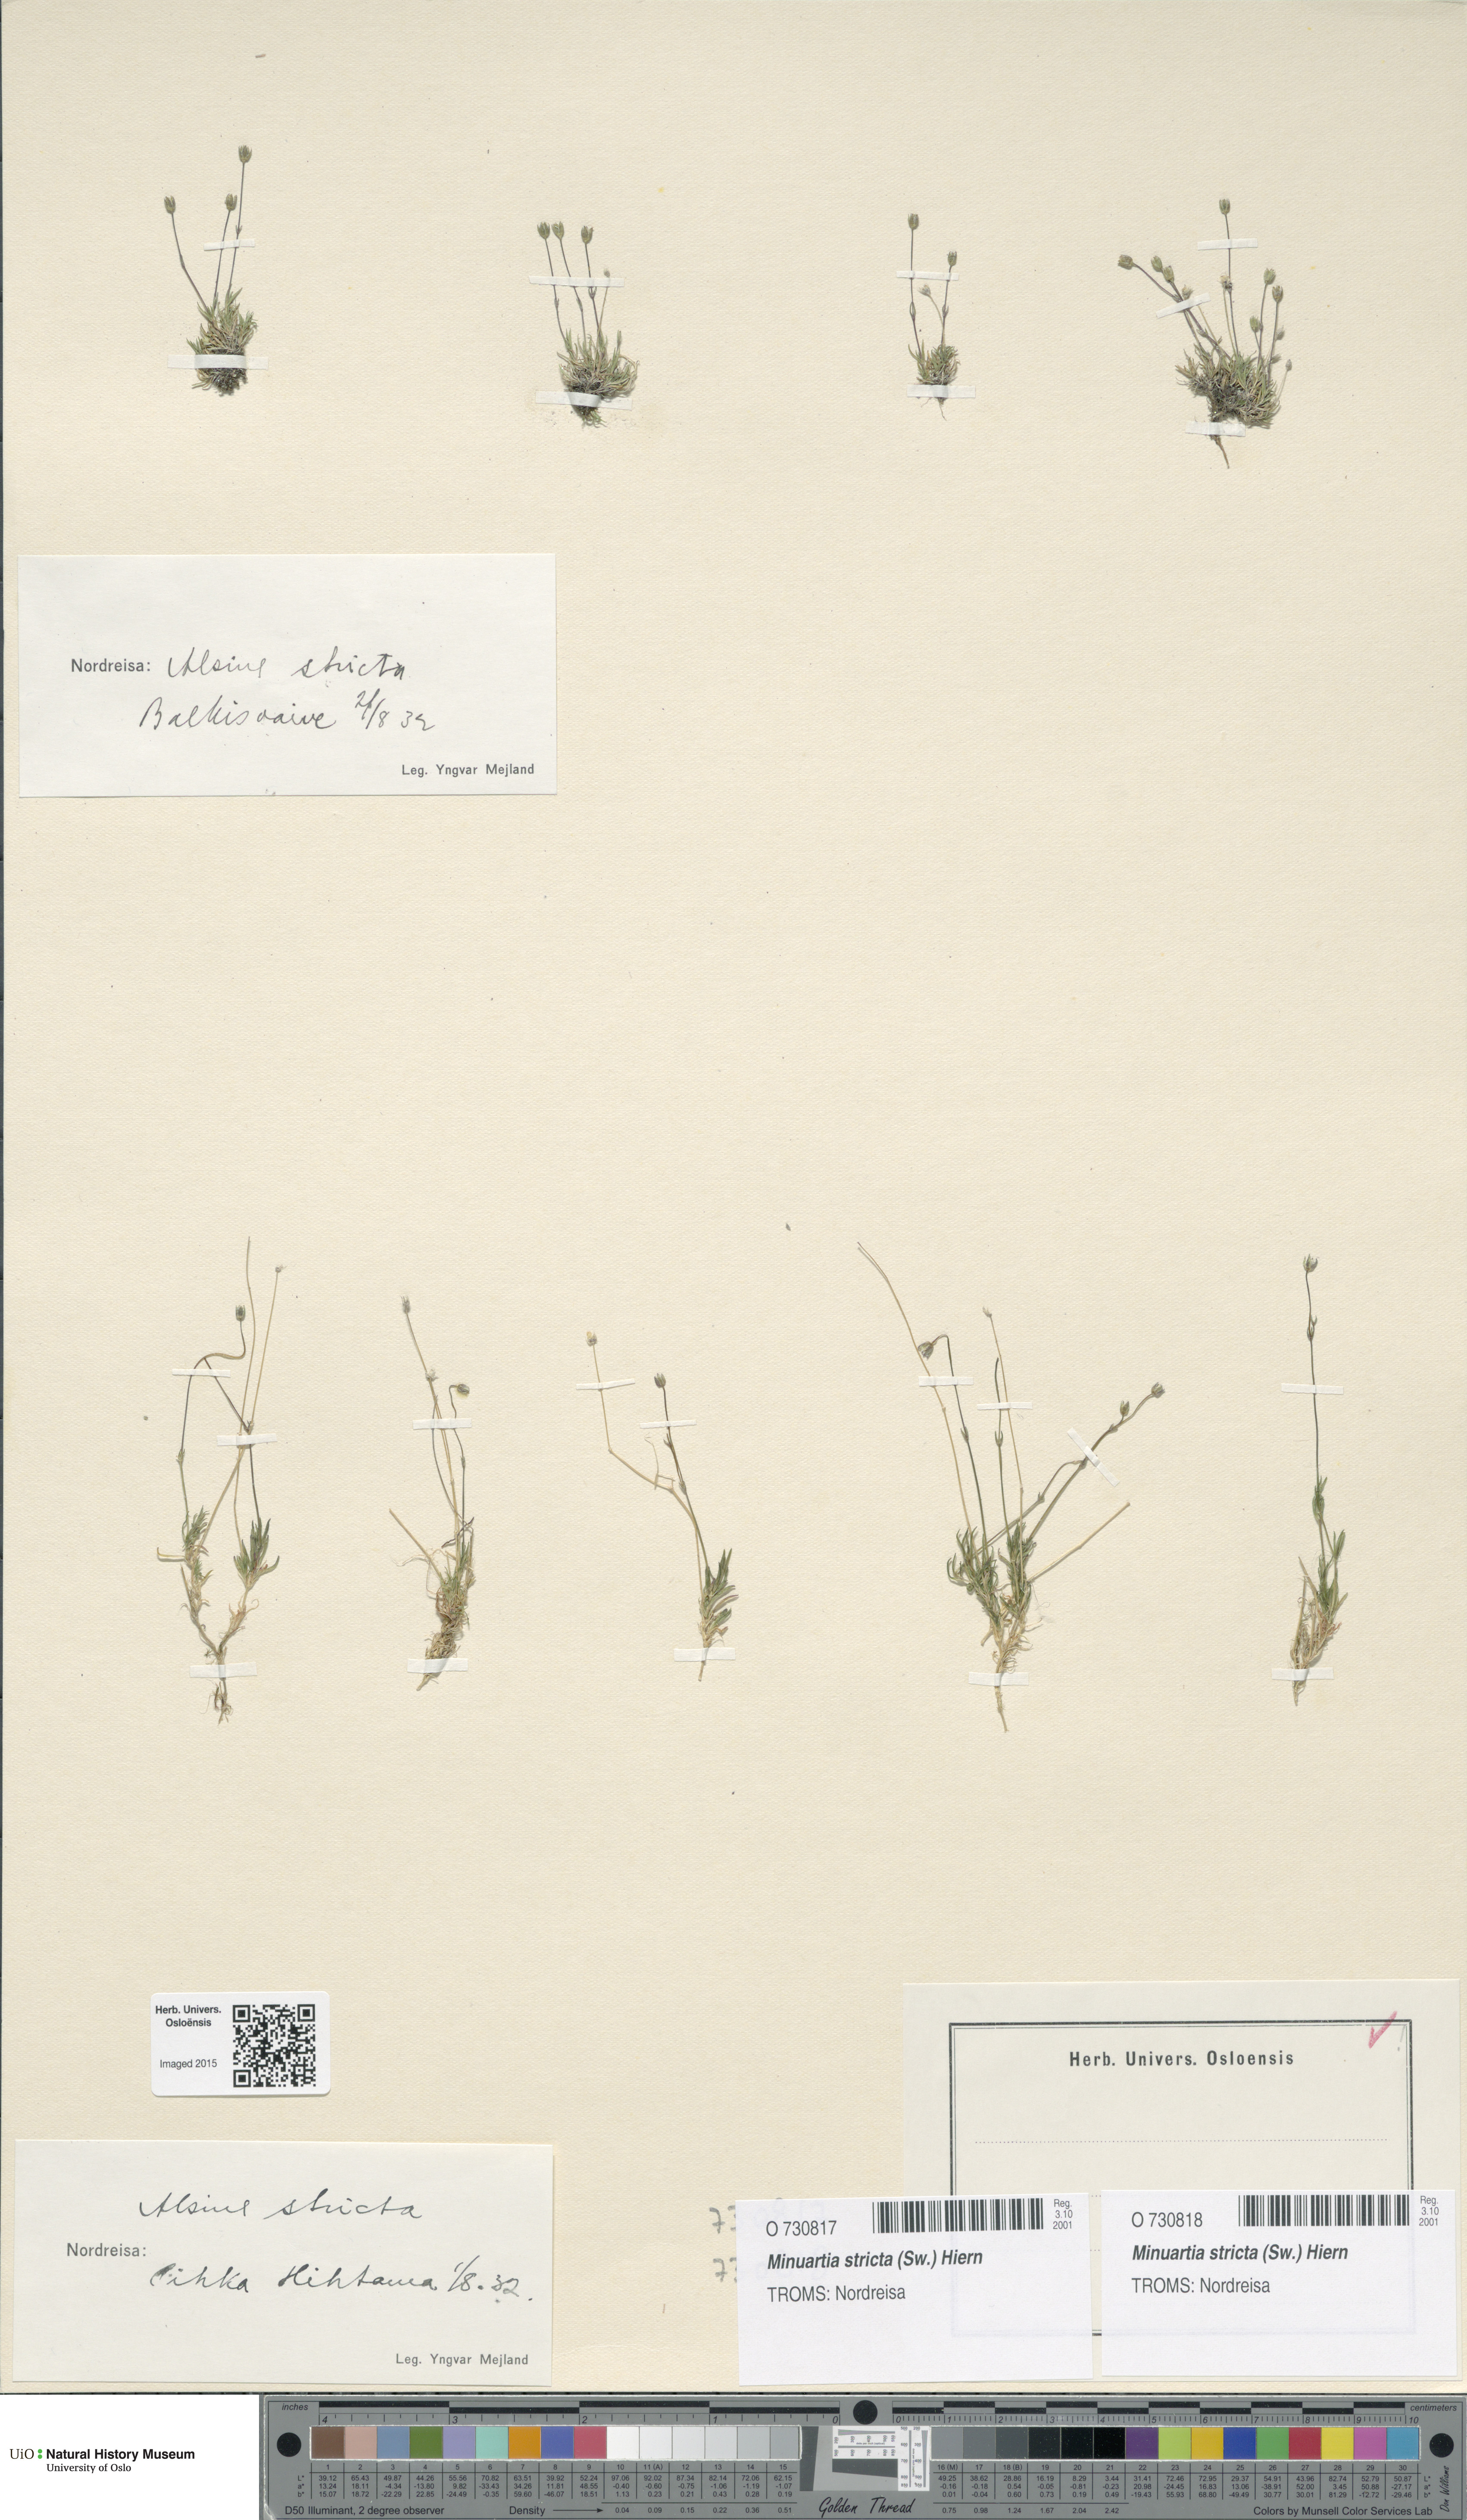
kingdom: Plantae
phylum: Tracheophyta
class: Magnoliopsida
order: Caryophyllales
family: Caryophyllaceae
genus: Sabulina
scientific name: Sabulina stricta
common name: Bog sandwort
